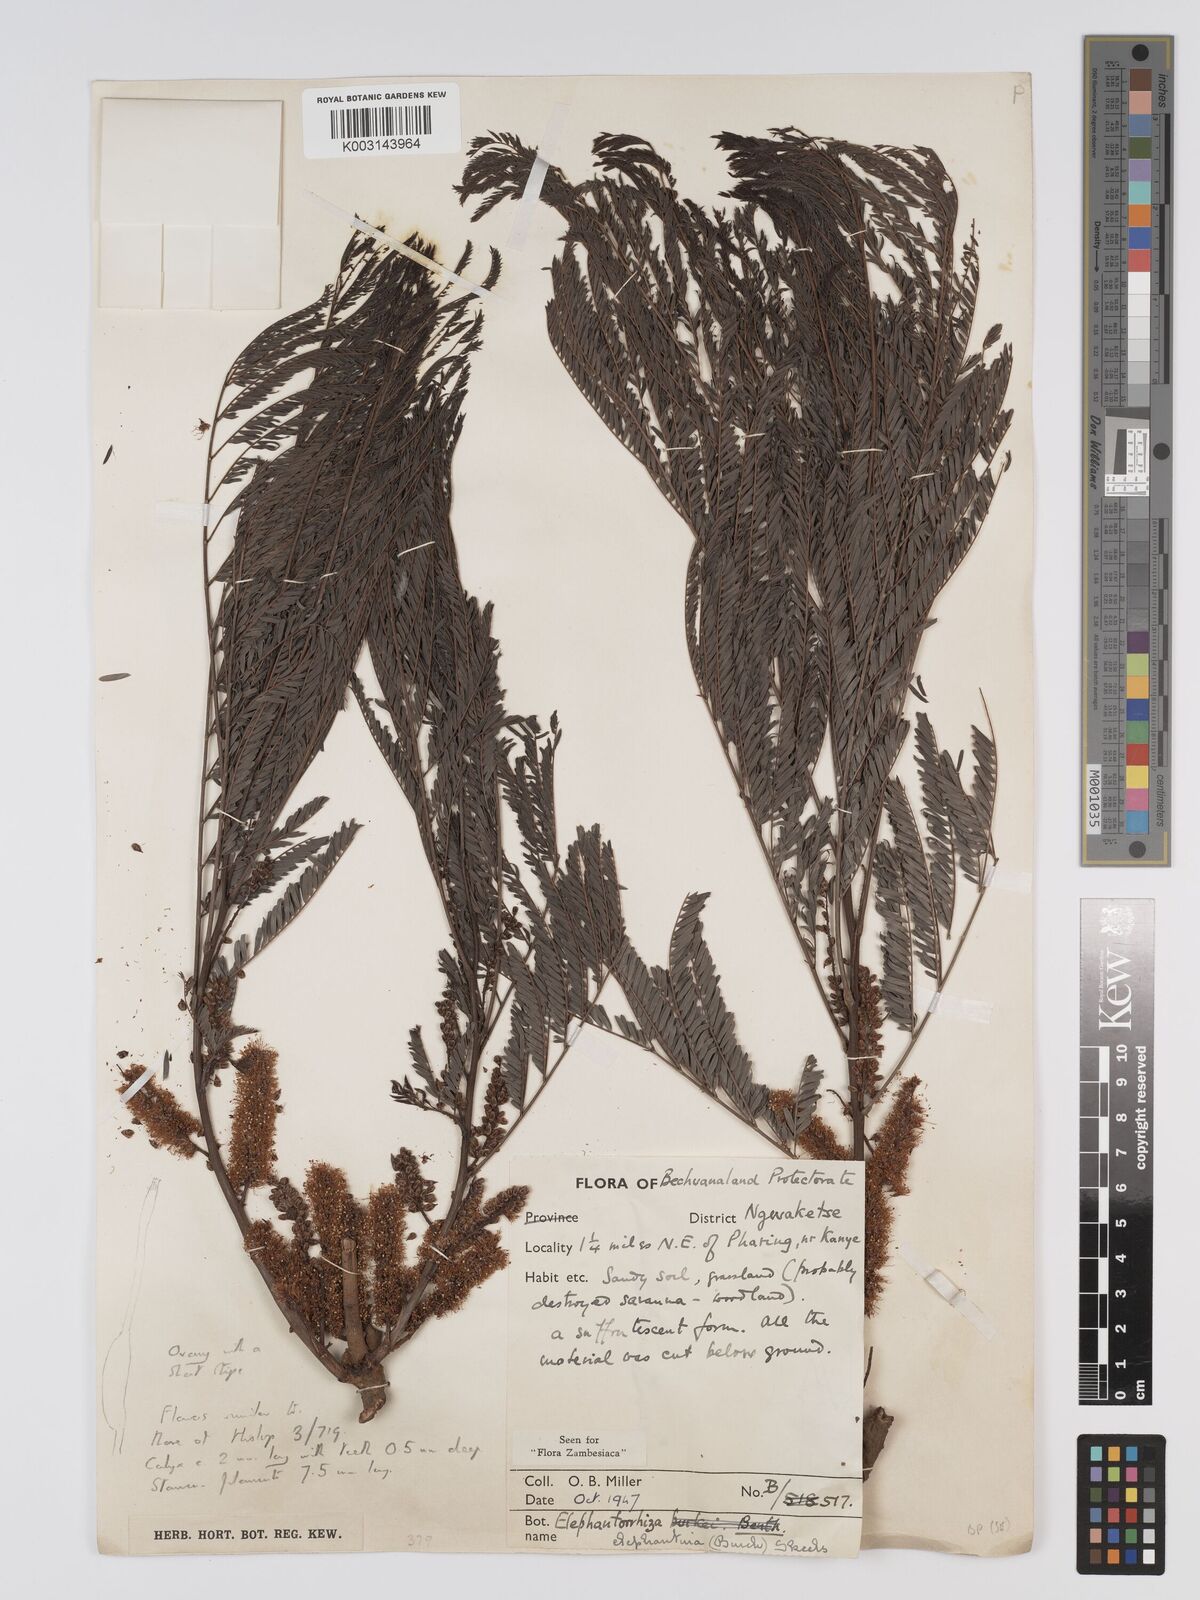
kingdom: Plantae
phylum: Tracheophyta
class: Magnoliopsida
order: Fabales
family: Fabaceae
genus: Elephantorrhiza
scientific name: Elephantorrhiza elephantina
